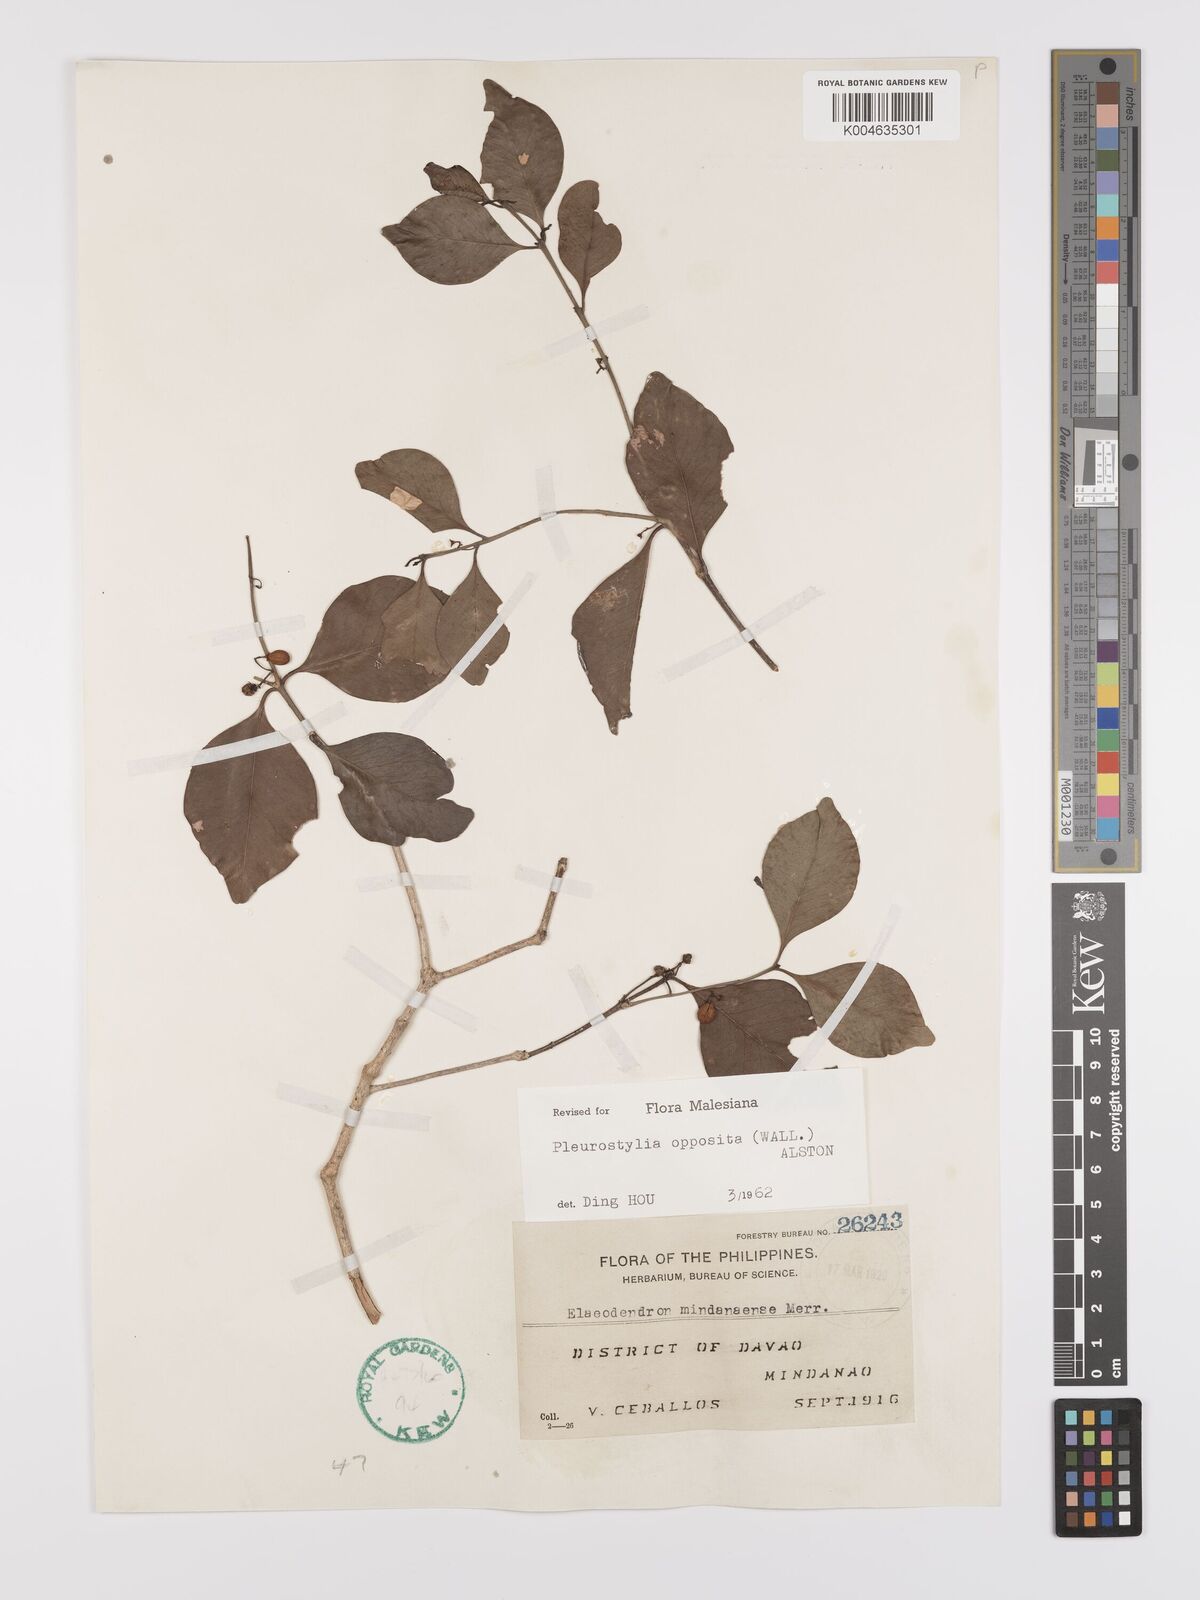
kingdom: Plantae
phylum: Tracheophyta
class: Magnoliopsida
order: Celastrales
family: Celastraceae
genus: Pleurostylia
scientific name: Pleurostylia opposita
